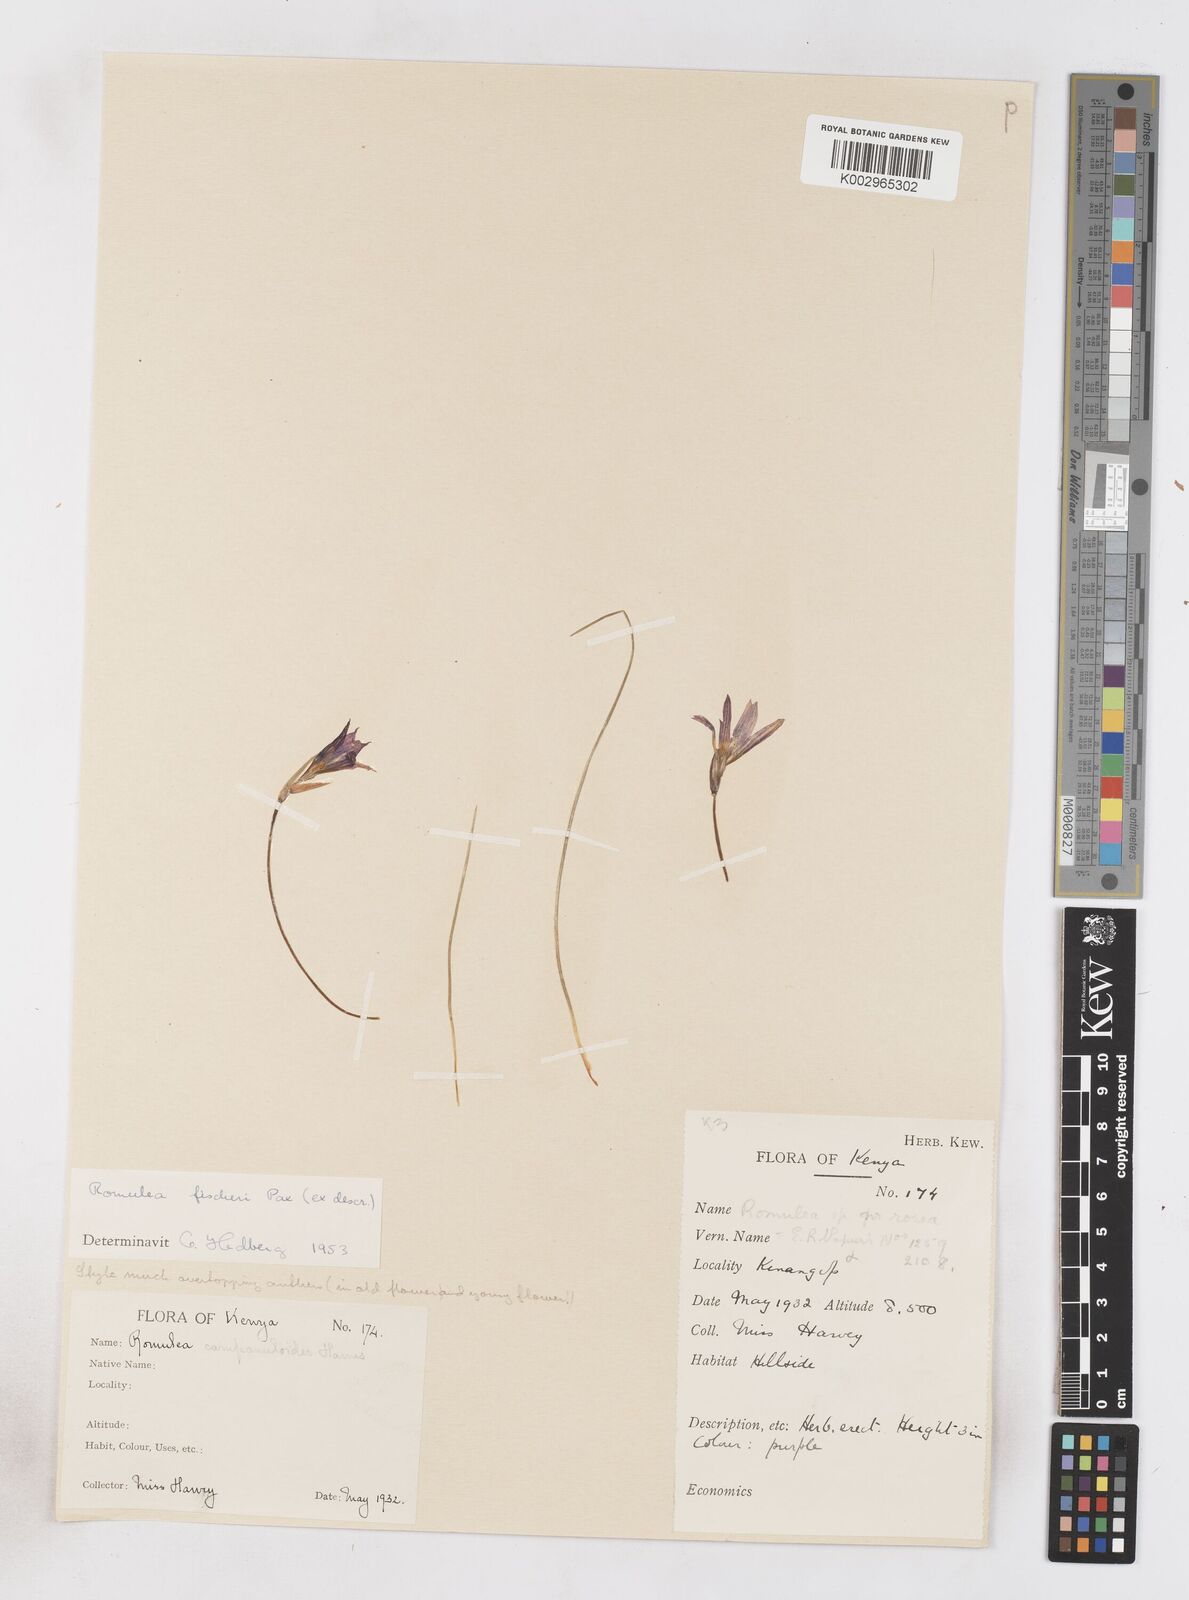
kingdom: Plantae
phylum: Tracheophyta
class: Liliopsida
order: Asparagales
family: Iridaceae
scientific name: Iridaceae
